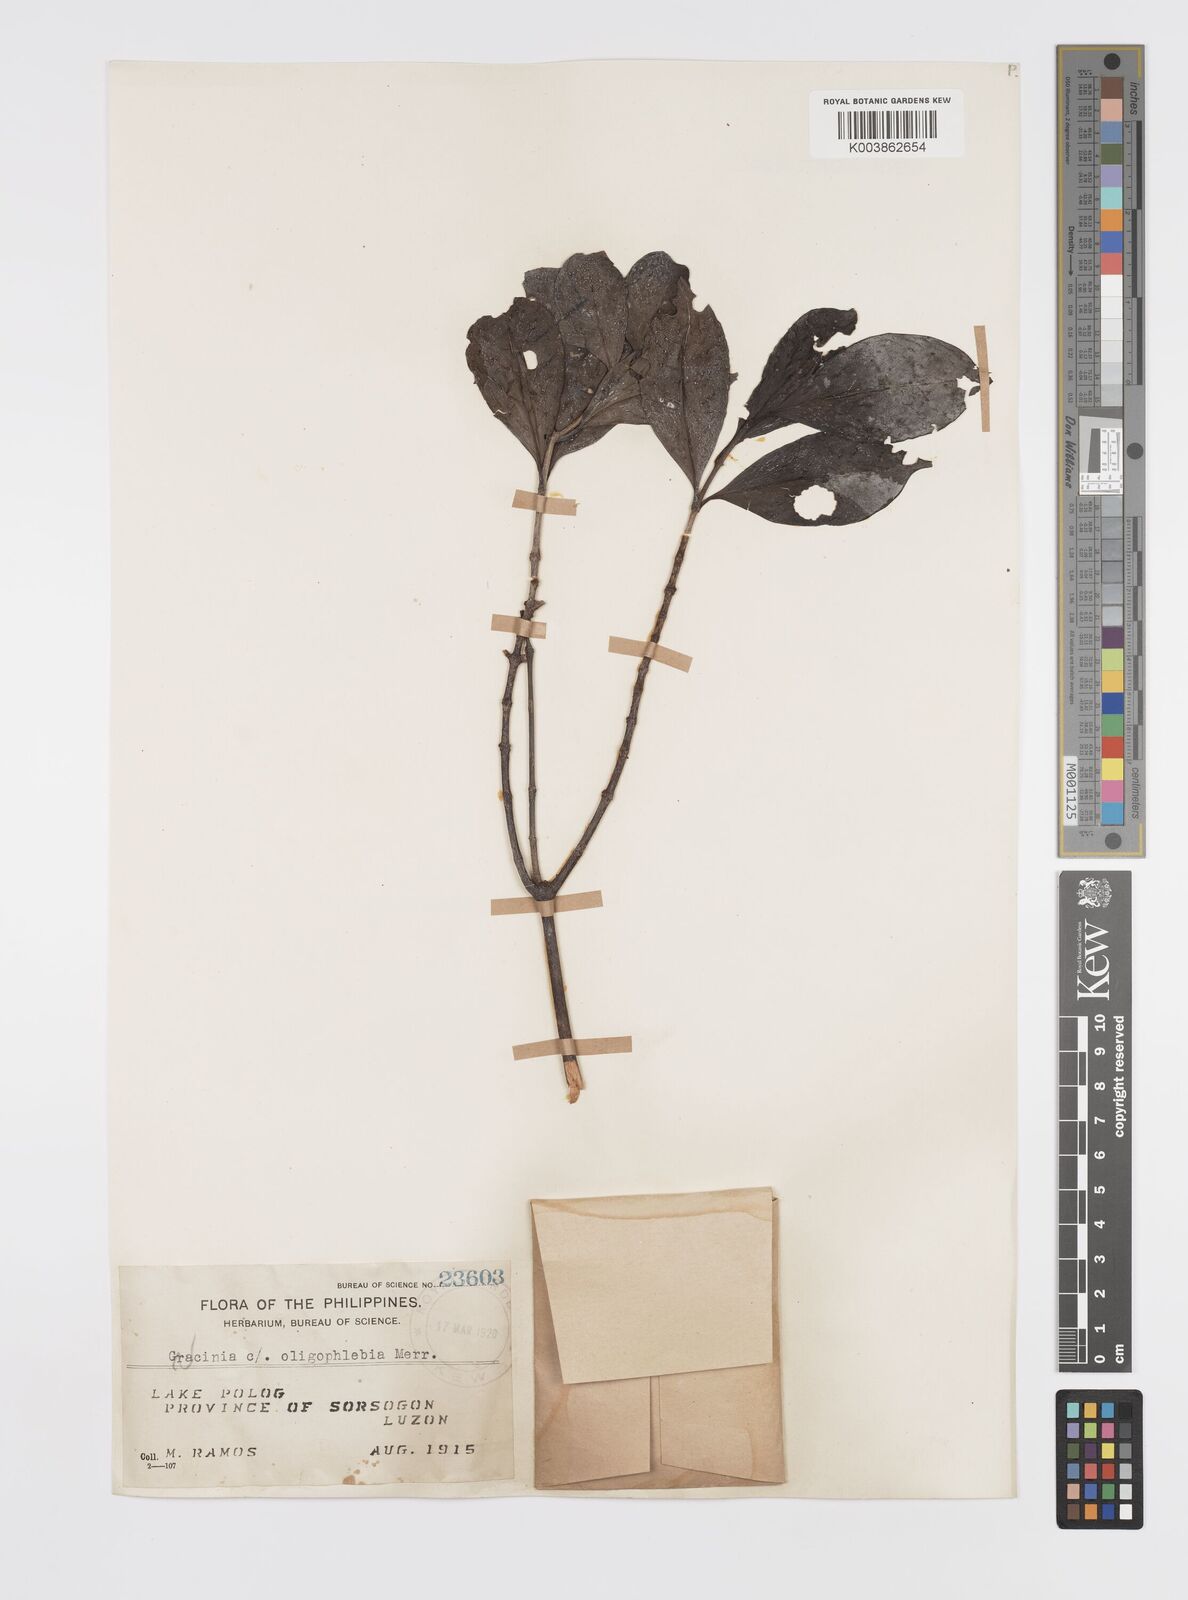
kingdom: Plantae
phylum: Tracheophyta
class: Magnoliopsida
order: Malpighiales
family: Clusiaceae
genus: Garcinia
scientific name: Garcinia rubra
